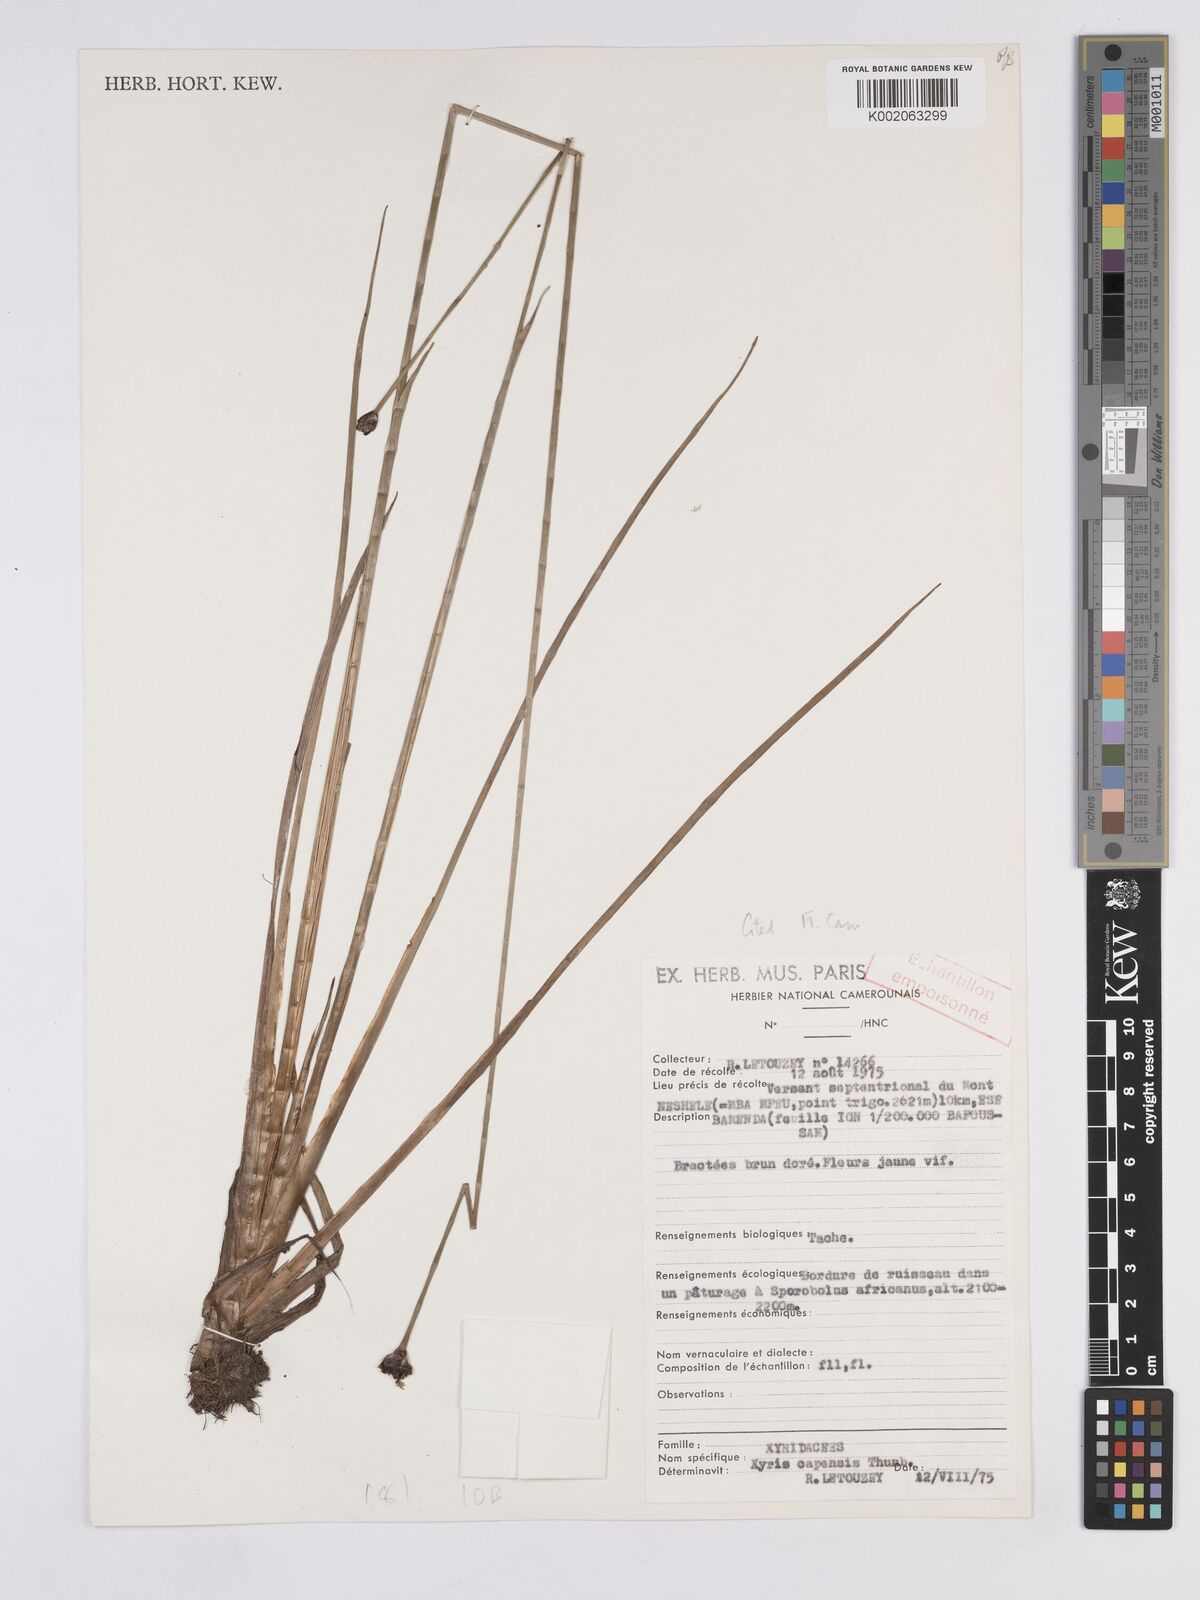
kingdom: Plantae
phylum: Tracheophyta
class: Liliopsida
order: Poales
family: Xyridaceae
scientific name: Xyridaceae
